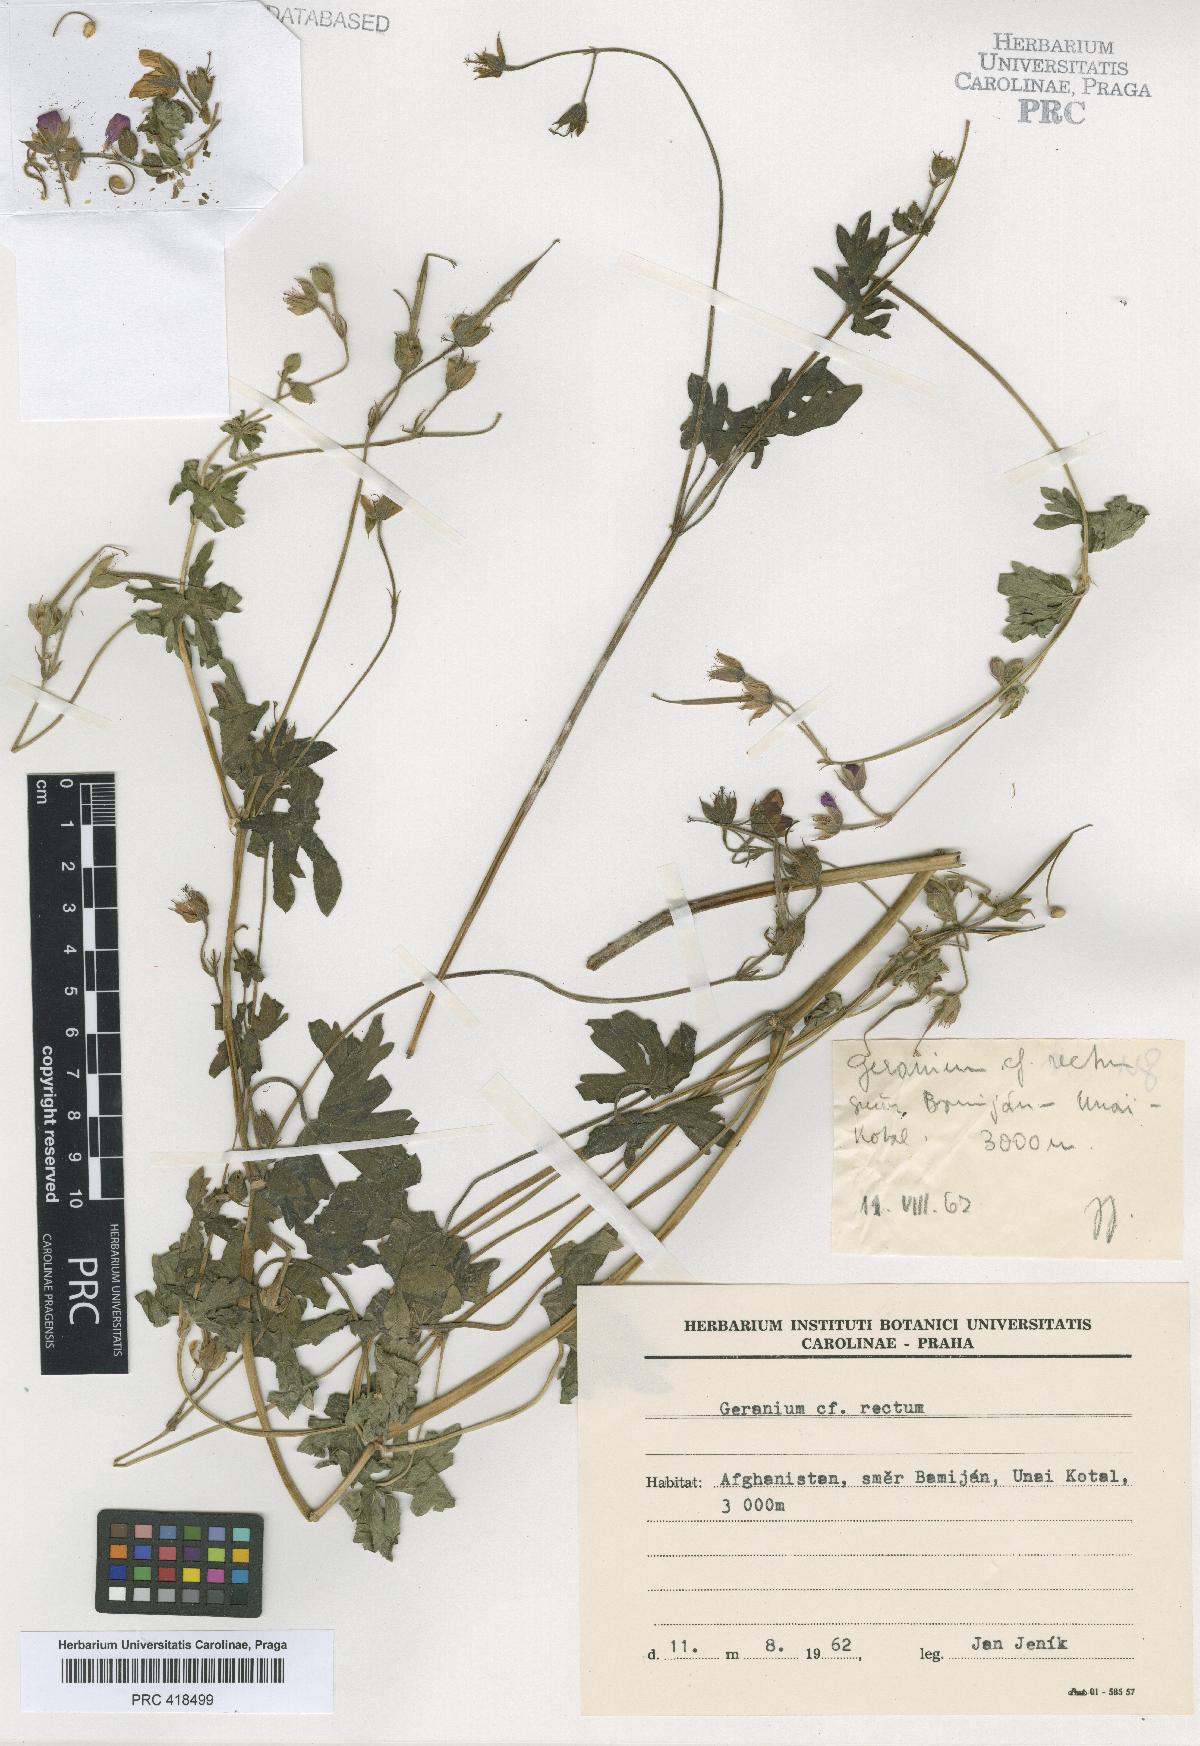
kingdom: Plantae
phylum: Tracheophyta
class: Magnoliopsida
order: Geraniales
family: Geraniaceae
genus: Geranium
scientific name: Geranium collinum
